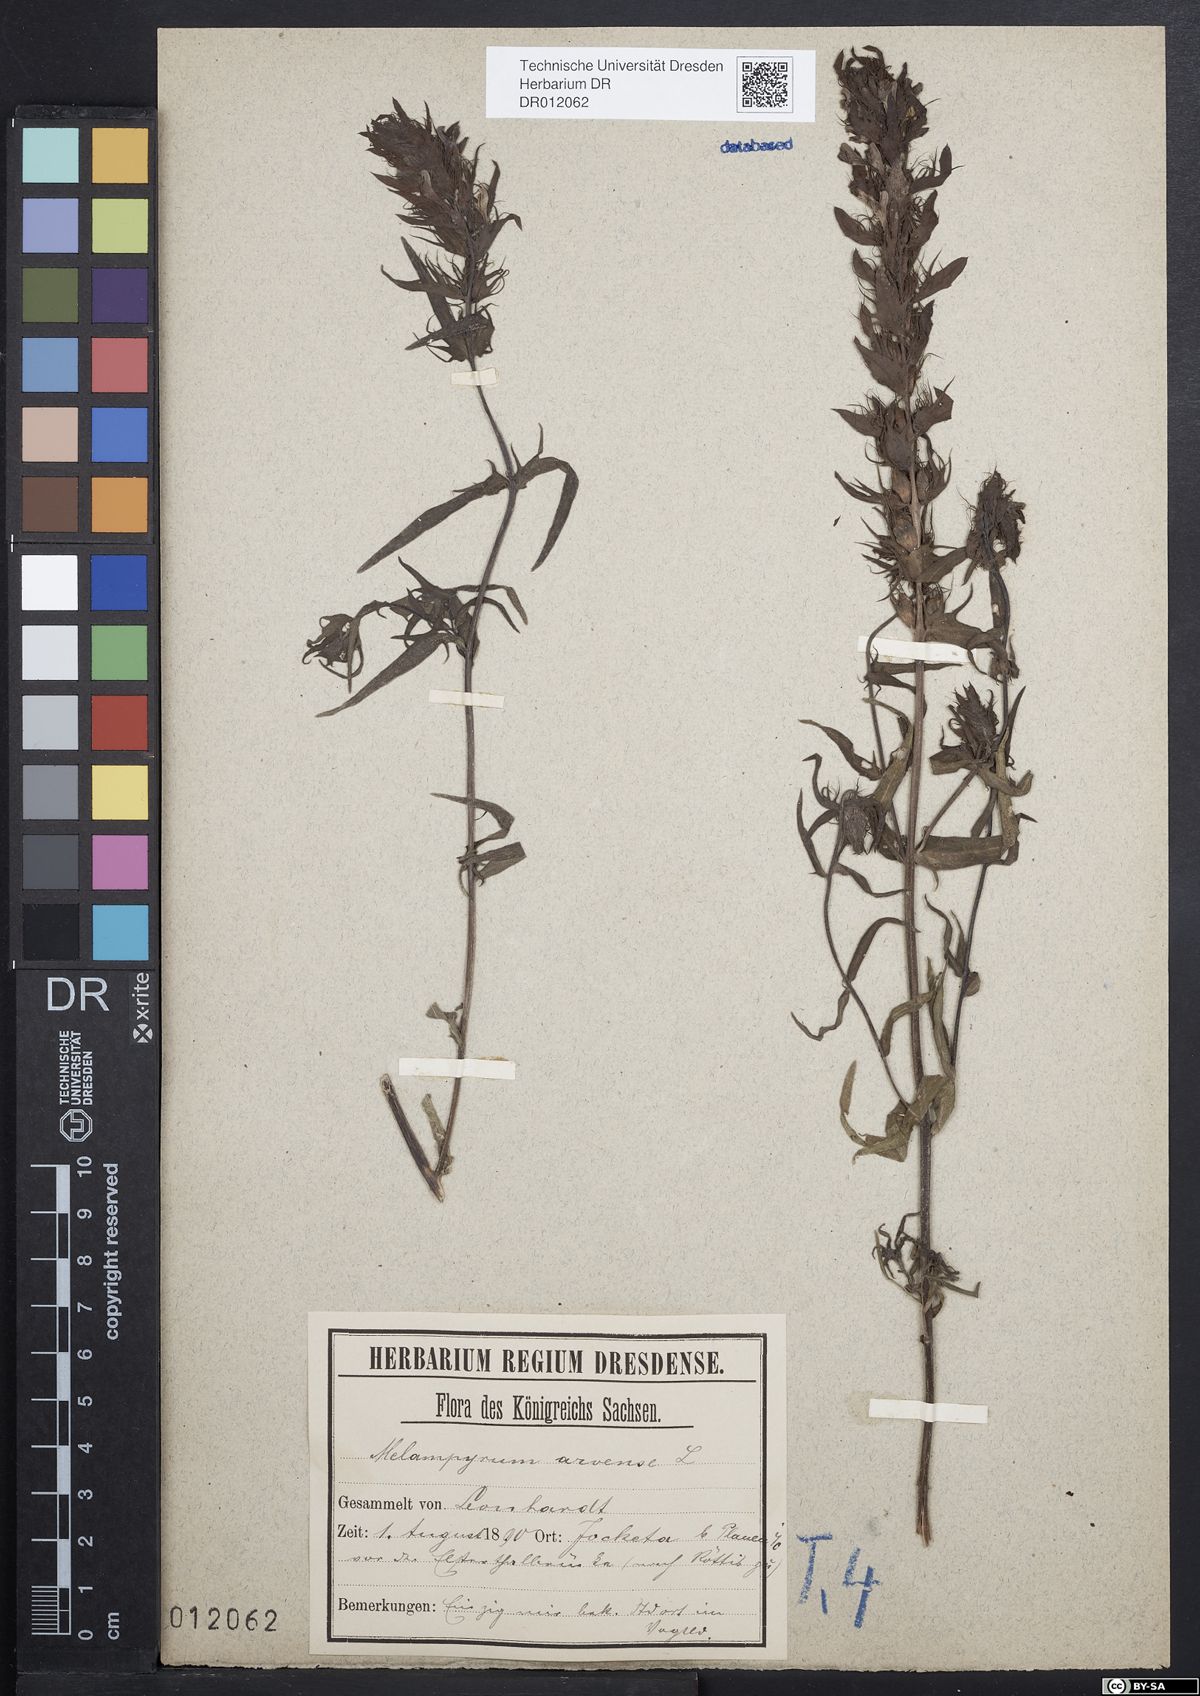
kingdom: Plantae
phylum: Tracheophyta
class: Magnoliopsida
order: Lamiales
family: Orobanchaceae
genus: Melampyrum
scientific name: Melampyrum arvense
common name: Field cow-wheat
